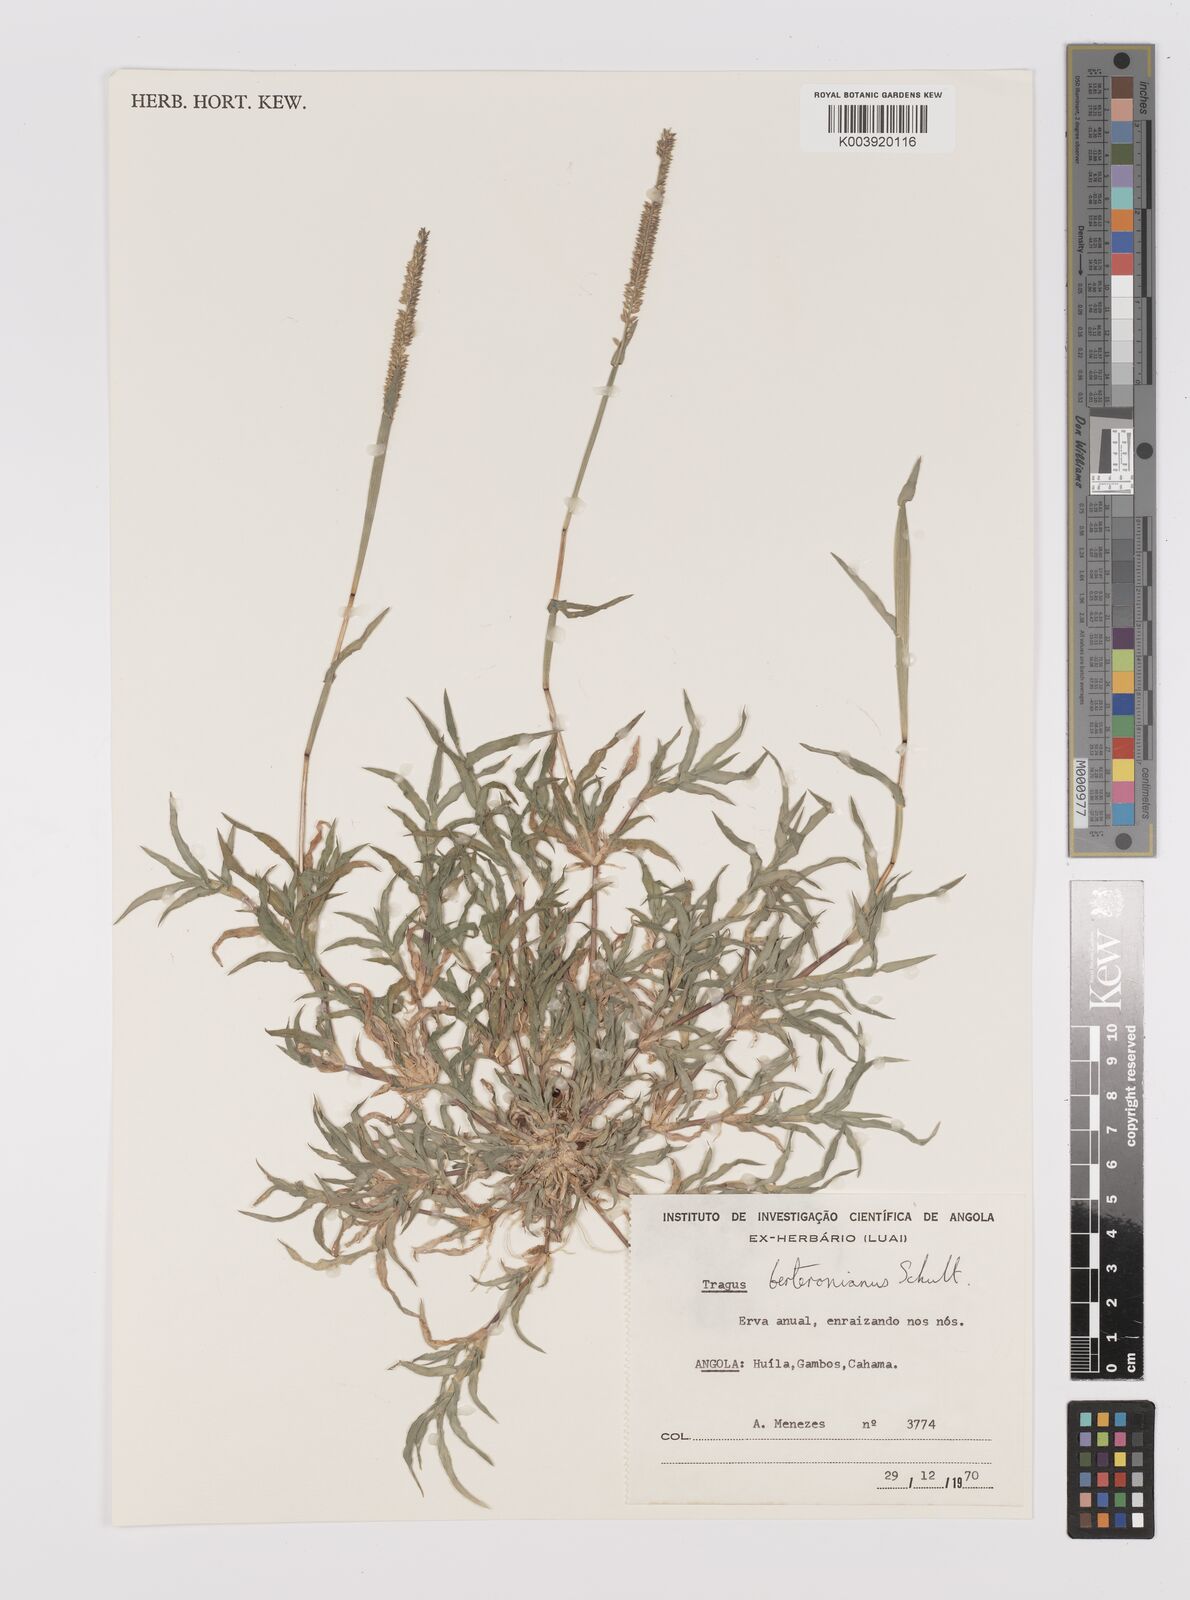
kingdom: Plantae
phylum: Tracheophyta
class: Liliopsida
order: Poales
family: Poaceae
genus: Tragus
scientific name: Tragus berteronianus
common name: African bur-grass
